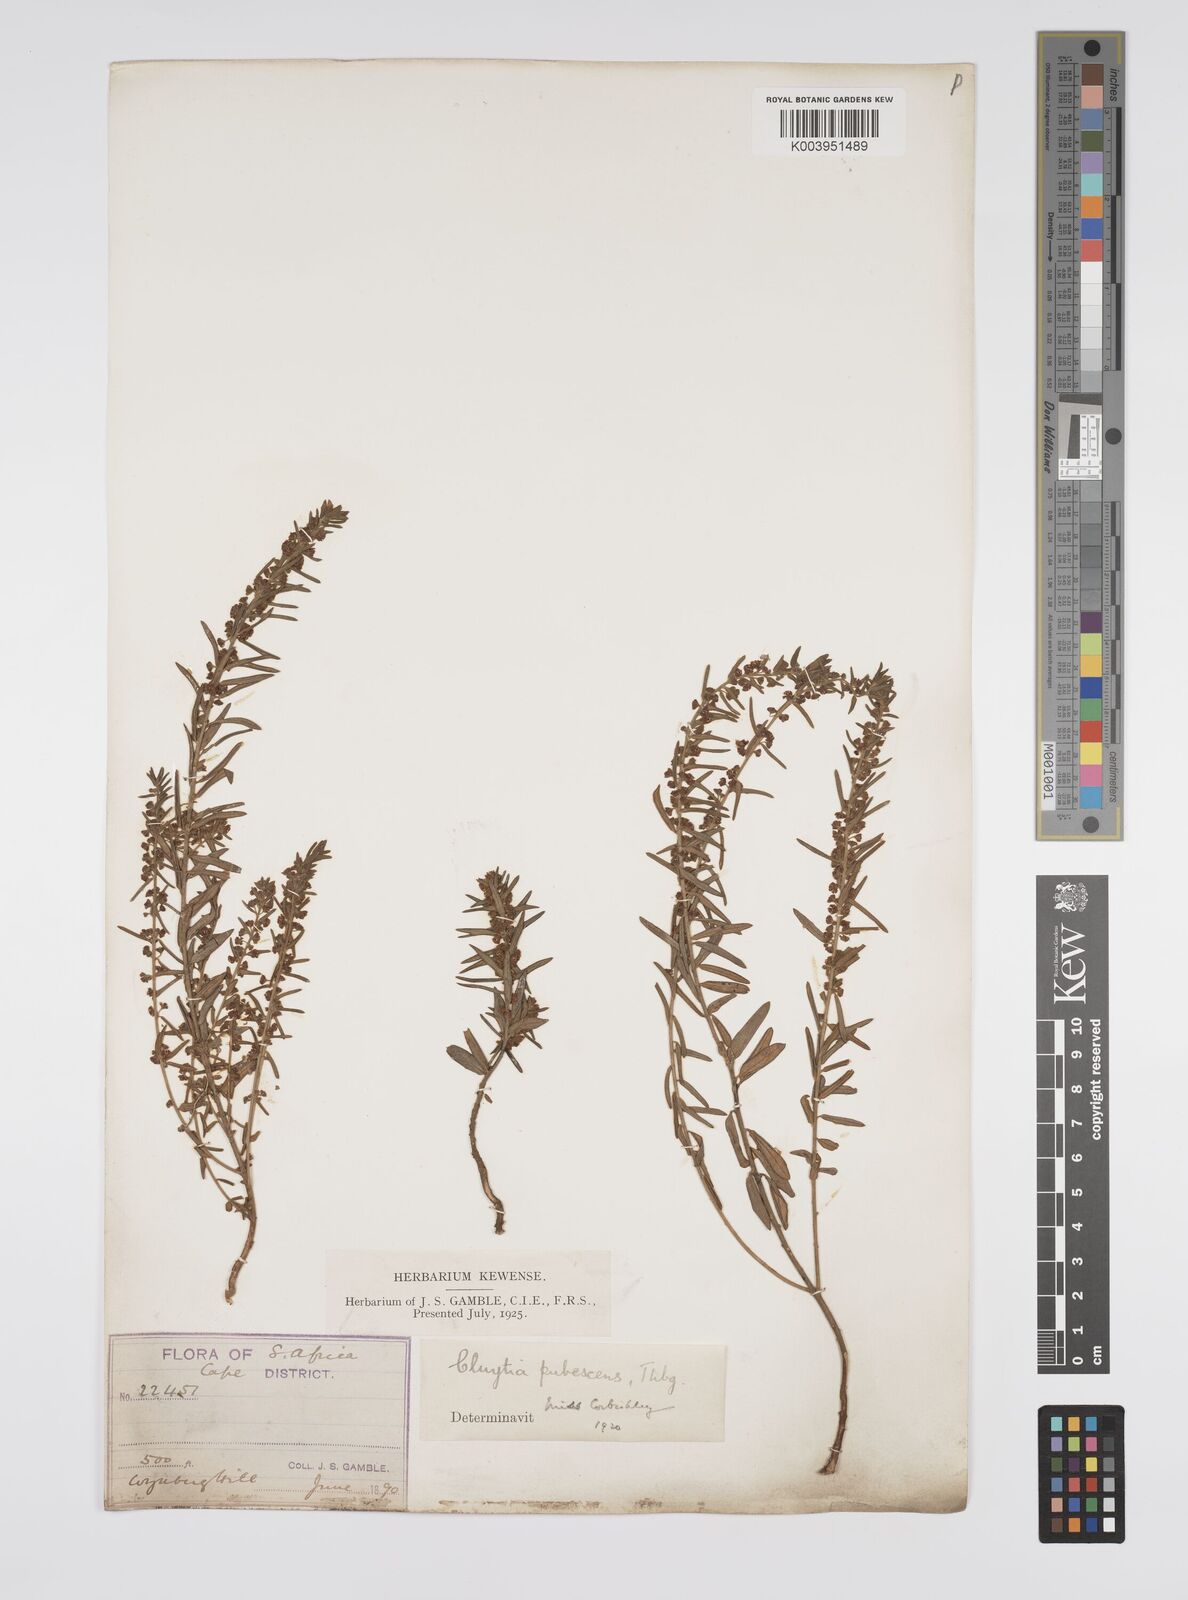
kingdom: Plantae
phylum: Tracheophyta
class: Magnoliopsida
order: Malpighiales
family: Peraceae
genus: Clutia
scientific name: Clutia
